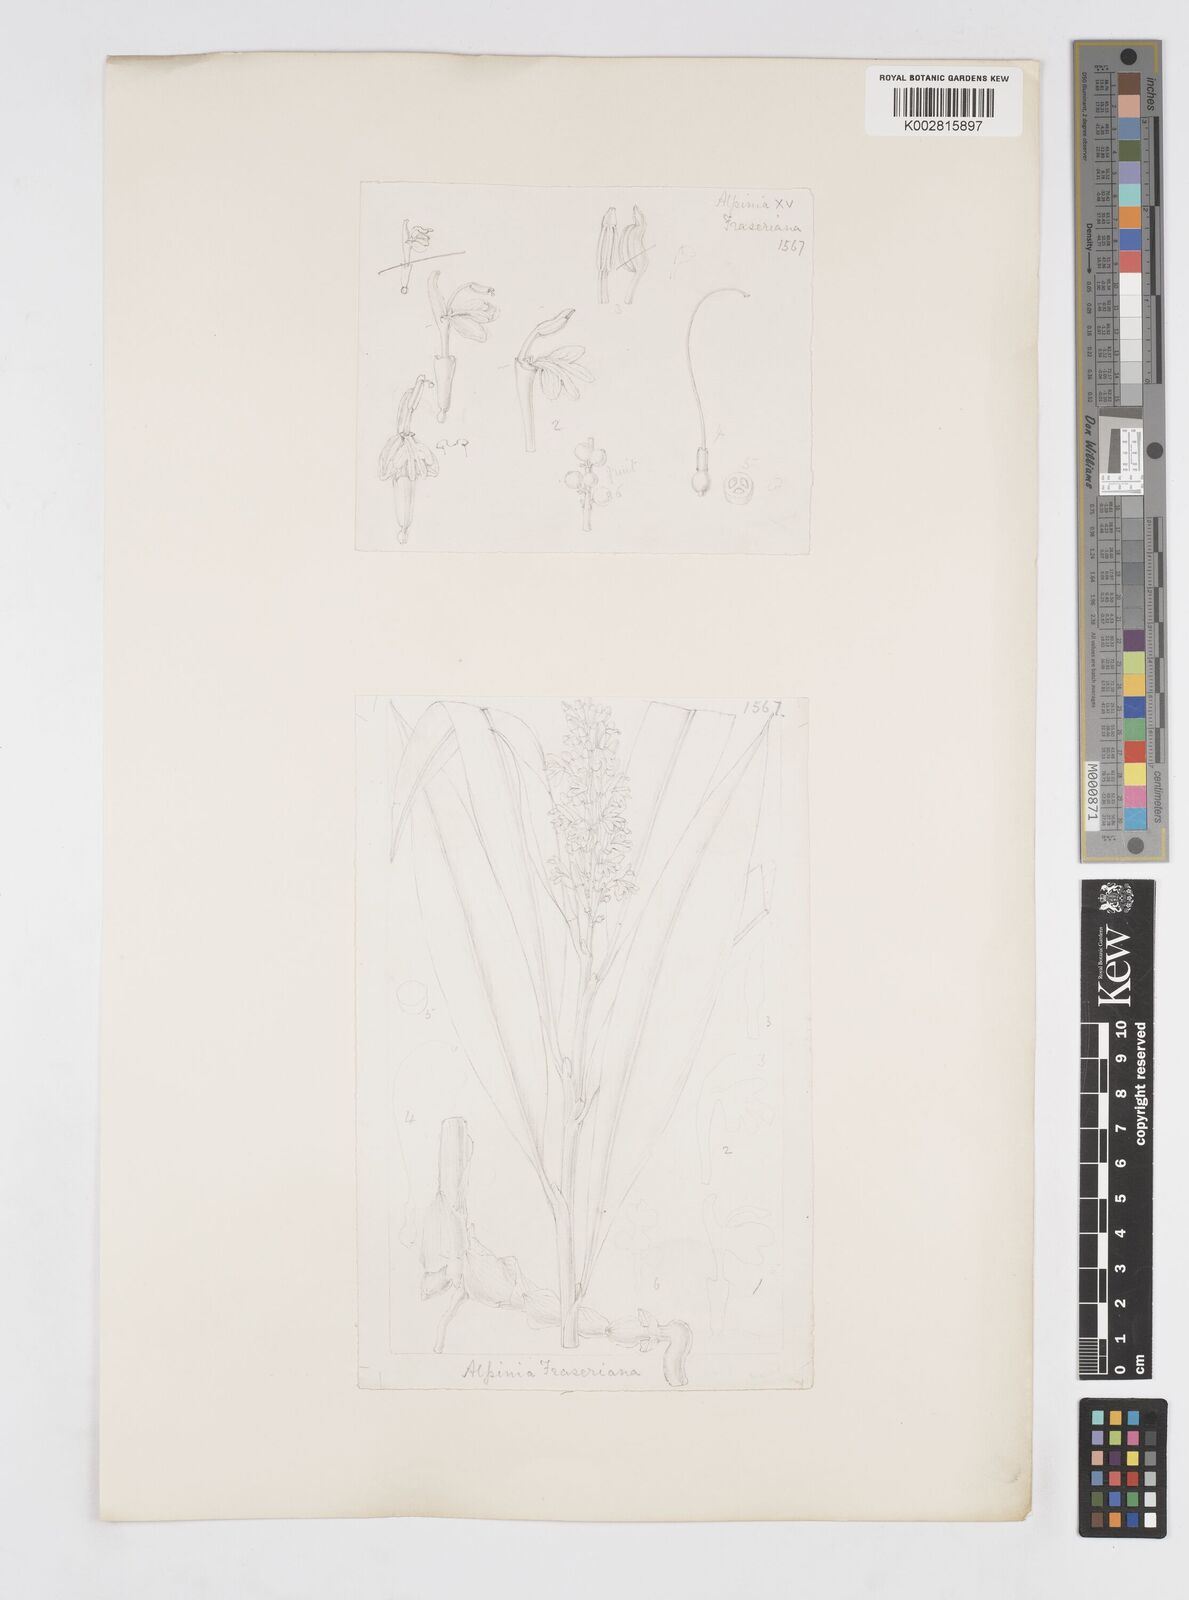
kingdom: Plantae
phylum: Tracheophyta
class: Liliopsida
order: Zingiberales
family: Zingiberaceae
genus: Alpinia
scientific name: Alpinia aquatica
